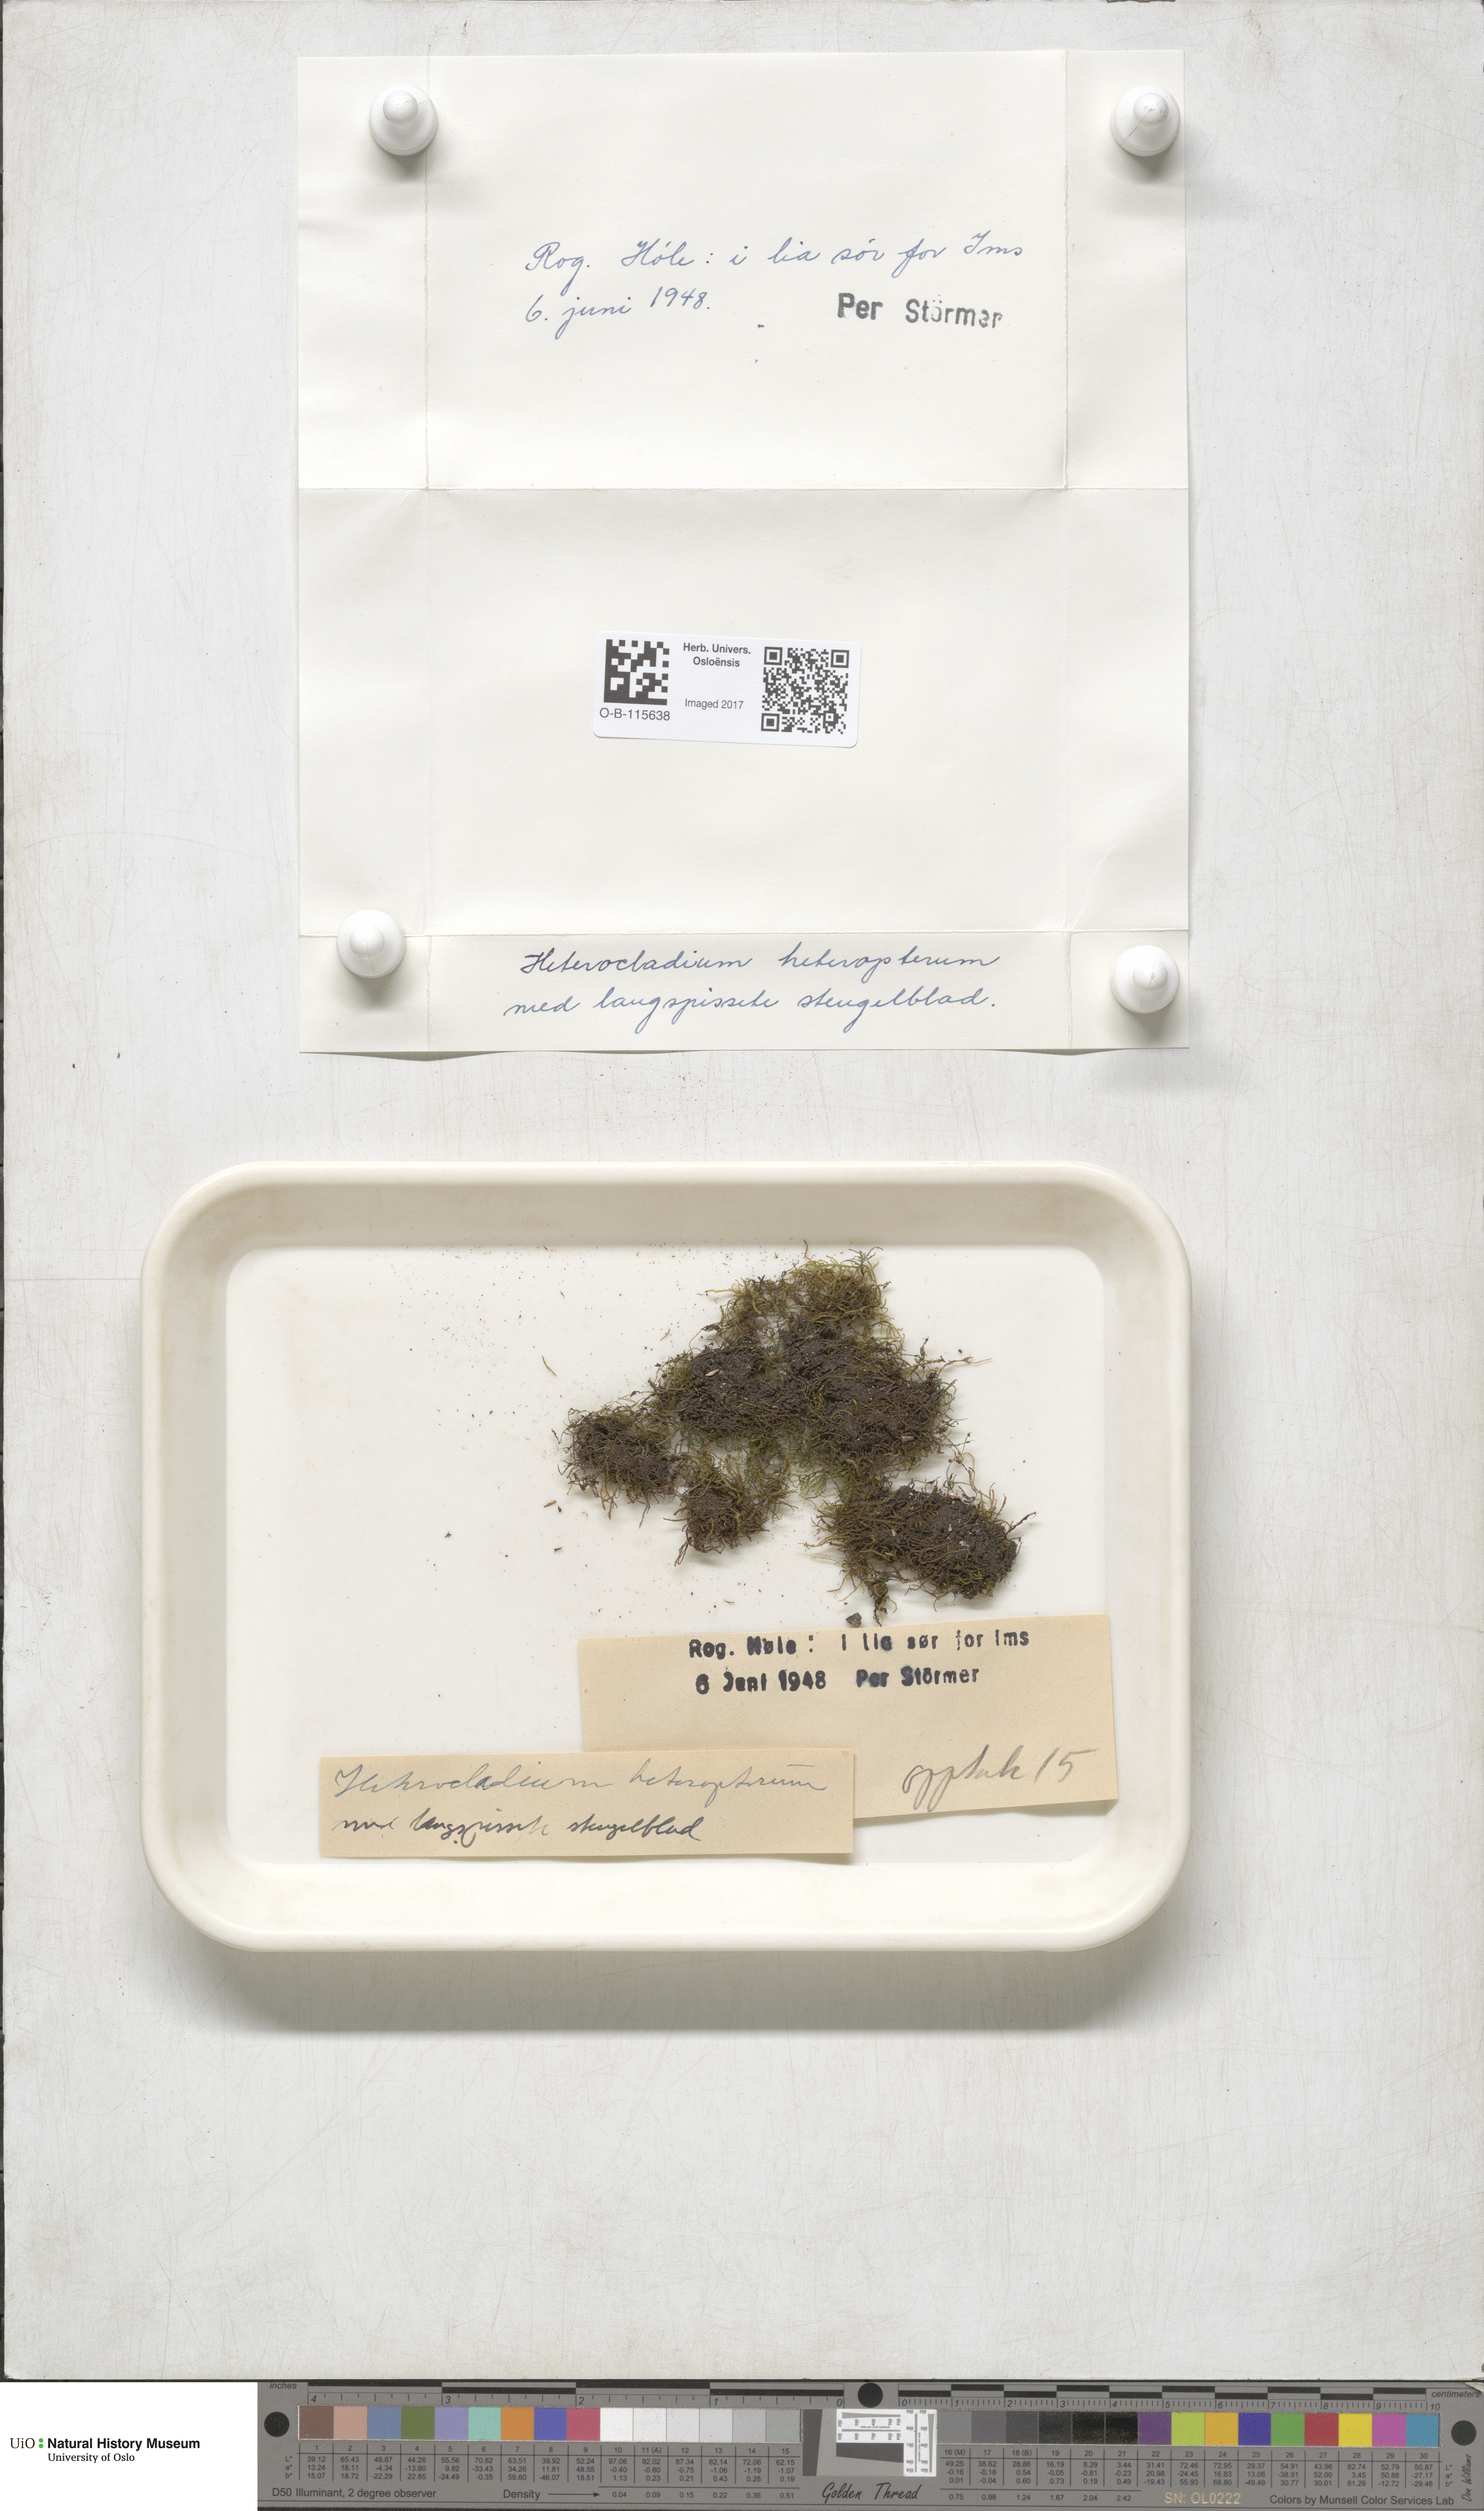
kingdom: Plantae
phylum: Bryophyta
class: Bryopsida
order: Hypnales
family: Lembophyllaceae
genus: Heterocladium
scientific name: Heterocladium heteropterum
